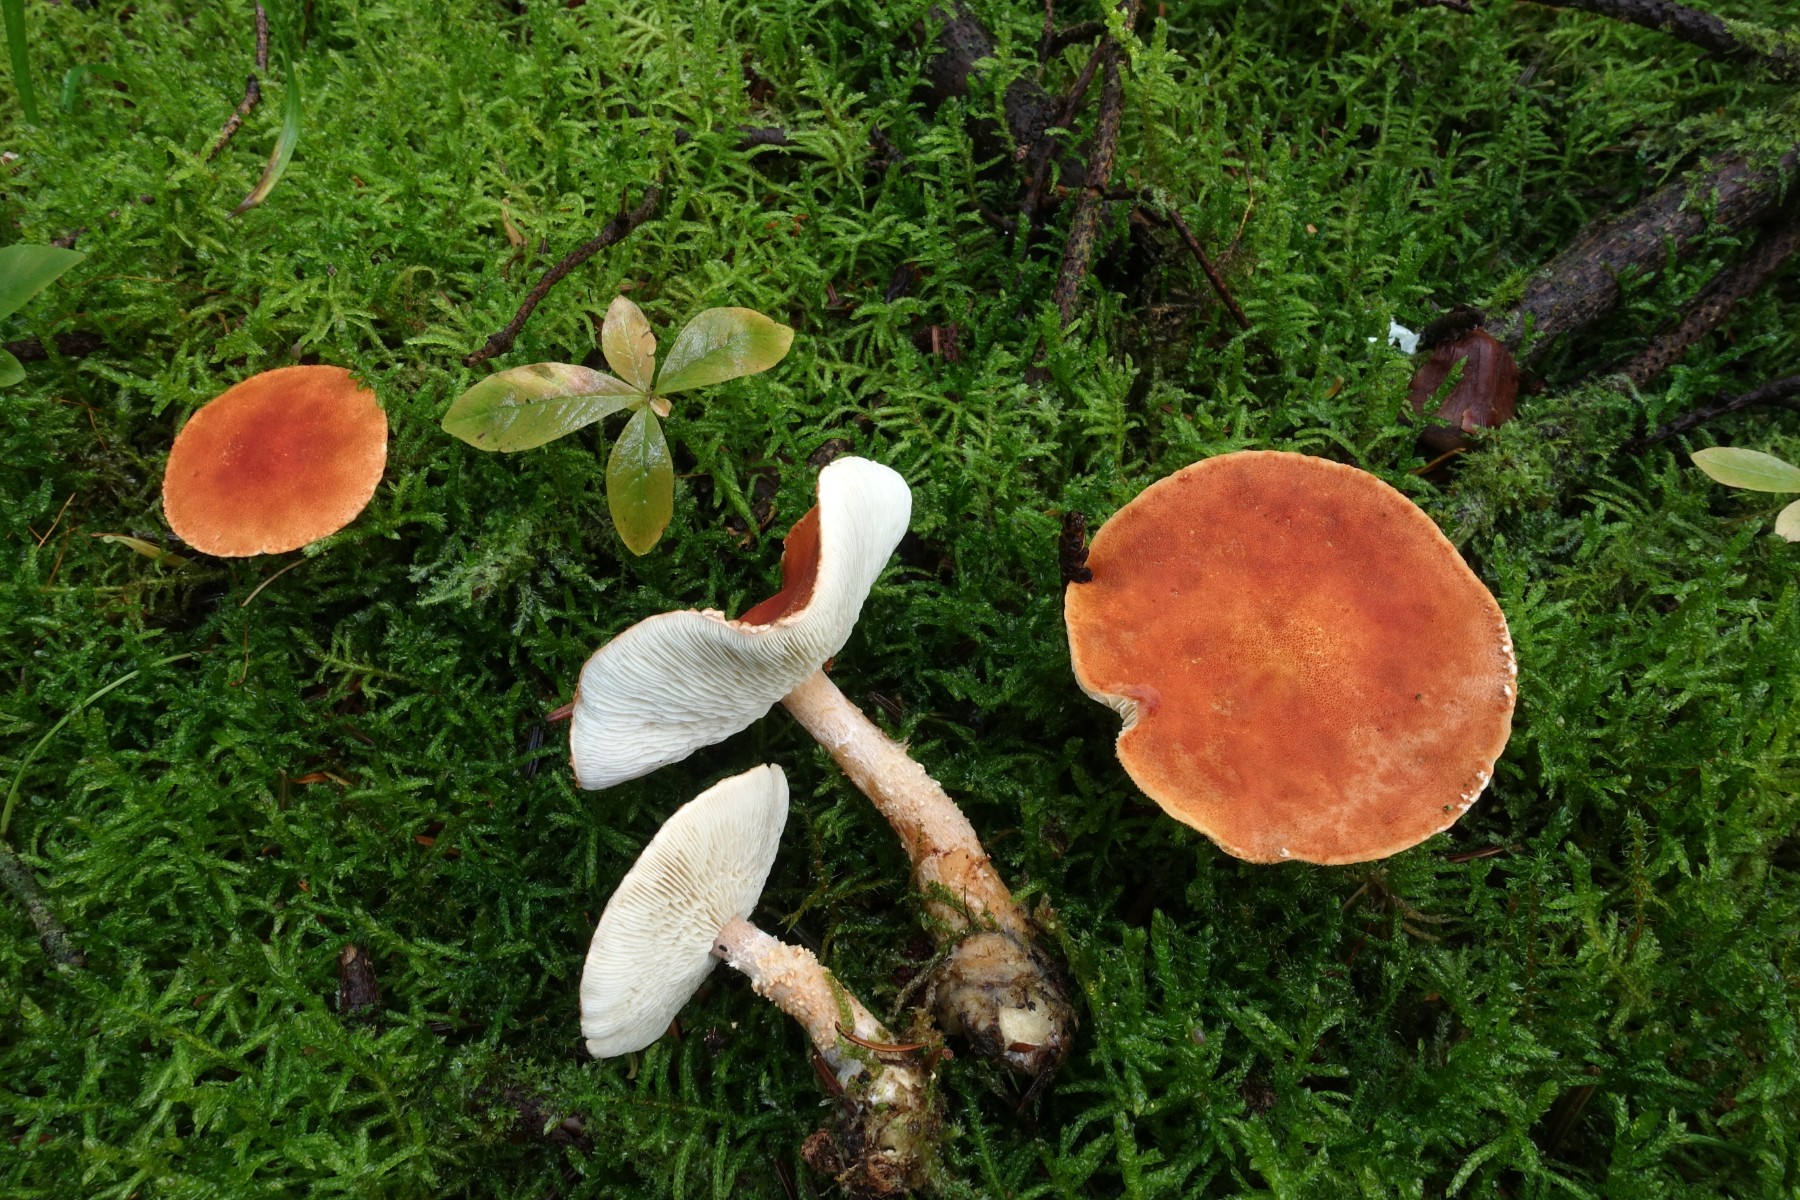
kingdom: Fungi
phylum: Basidiomycota
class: Agaricomycetes
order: Agaricales
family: Agaricaceae
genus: Cystodermella
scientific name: Cystodermella cinnabarina
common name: cinnober-grynhat
